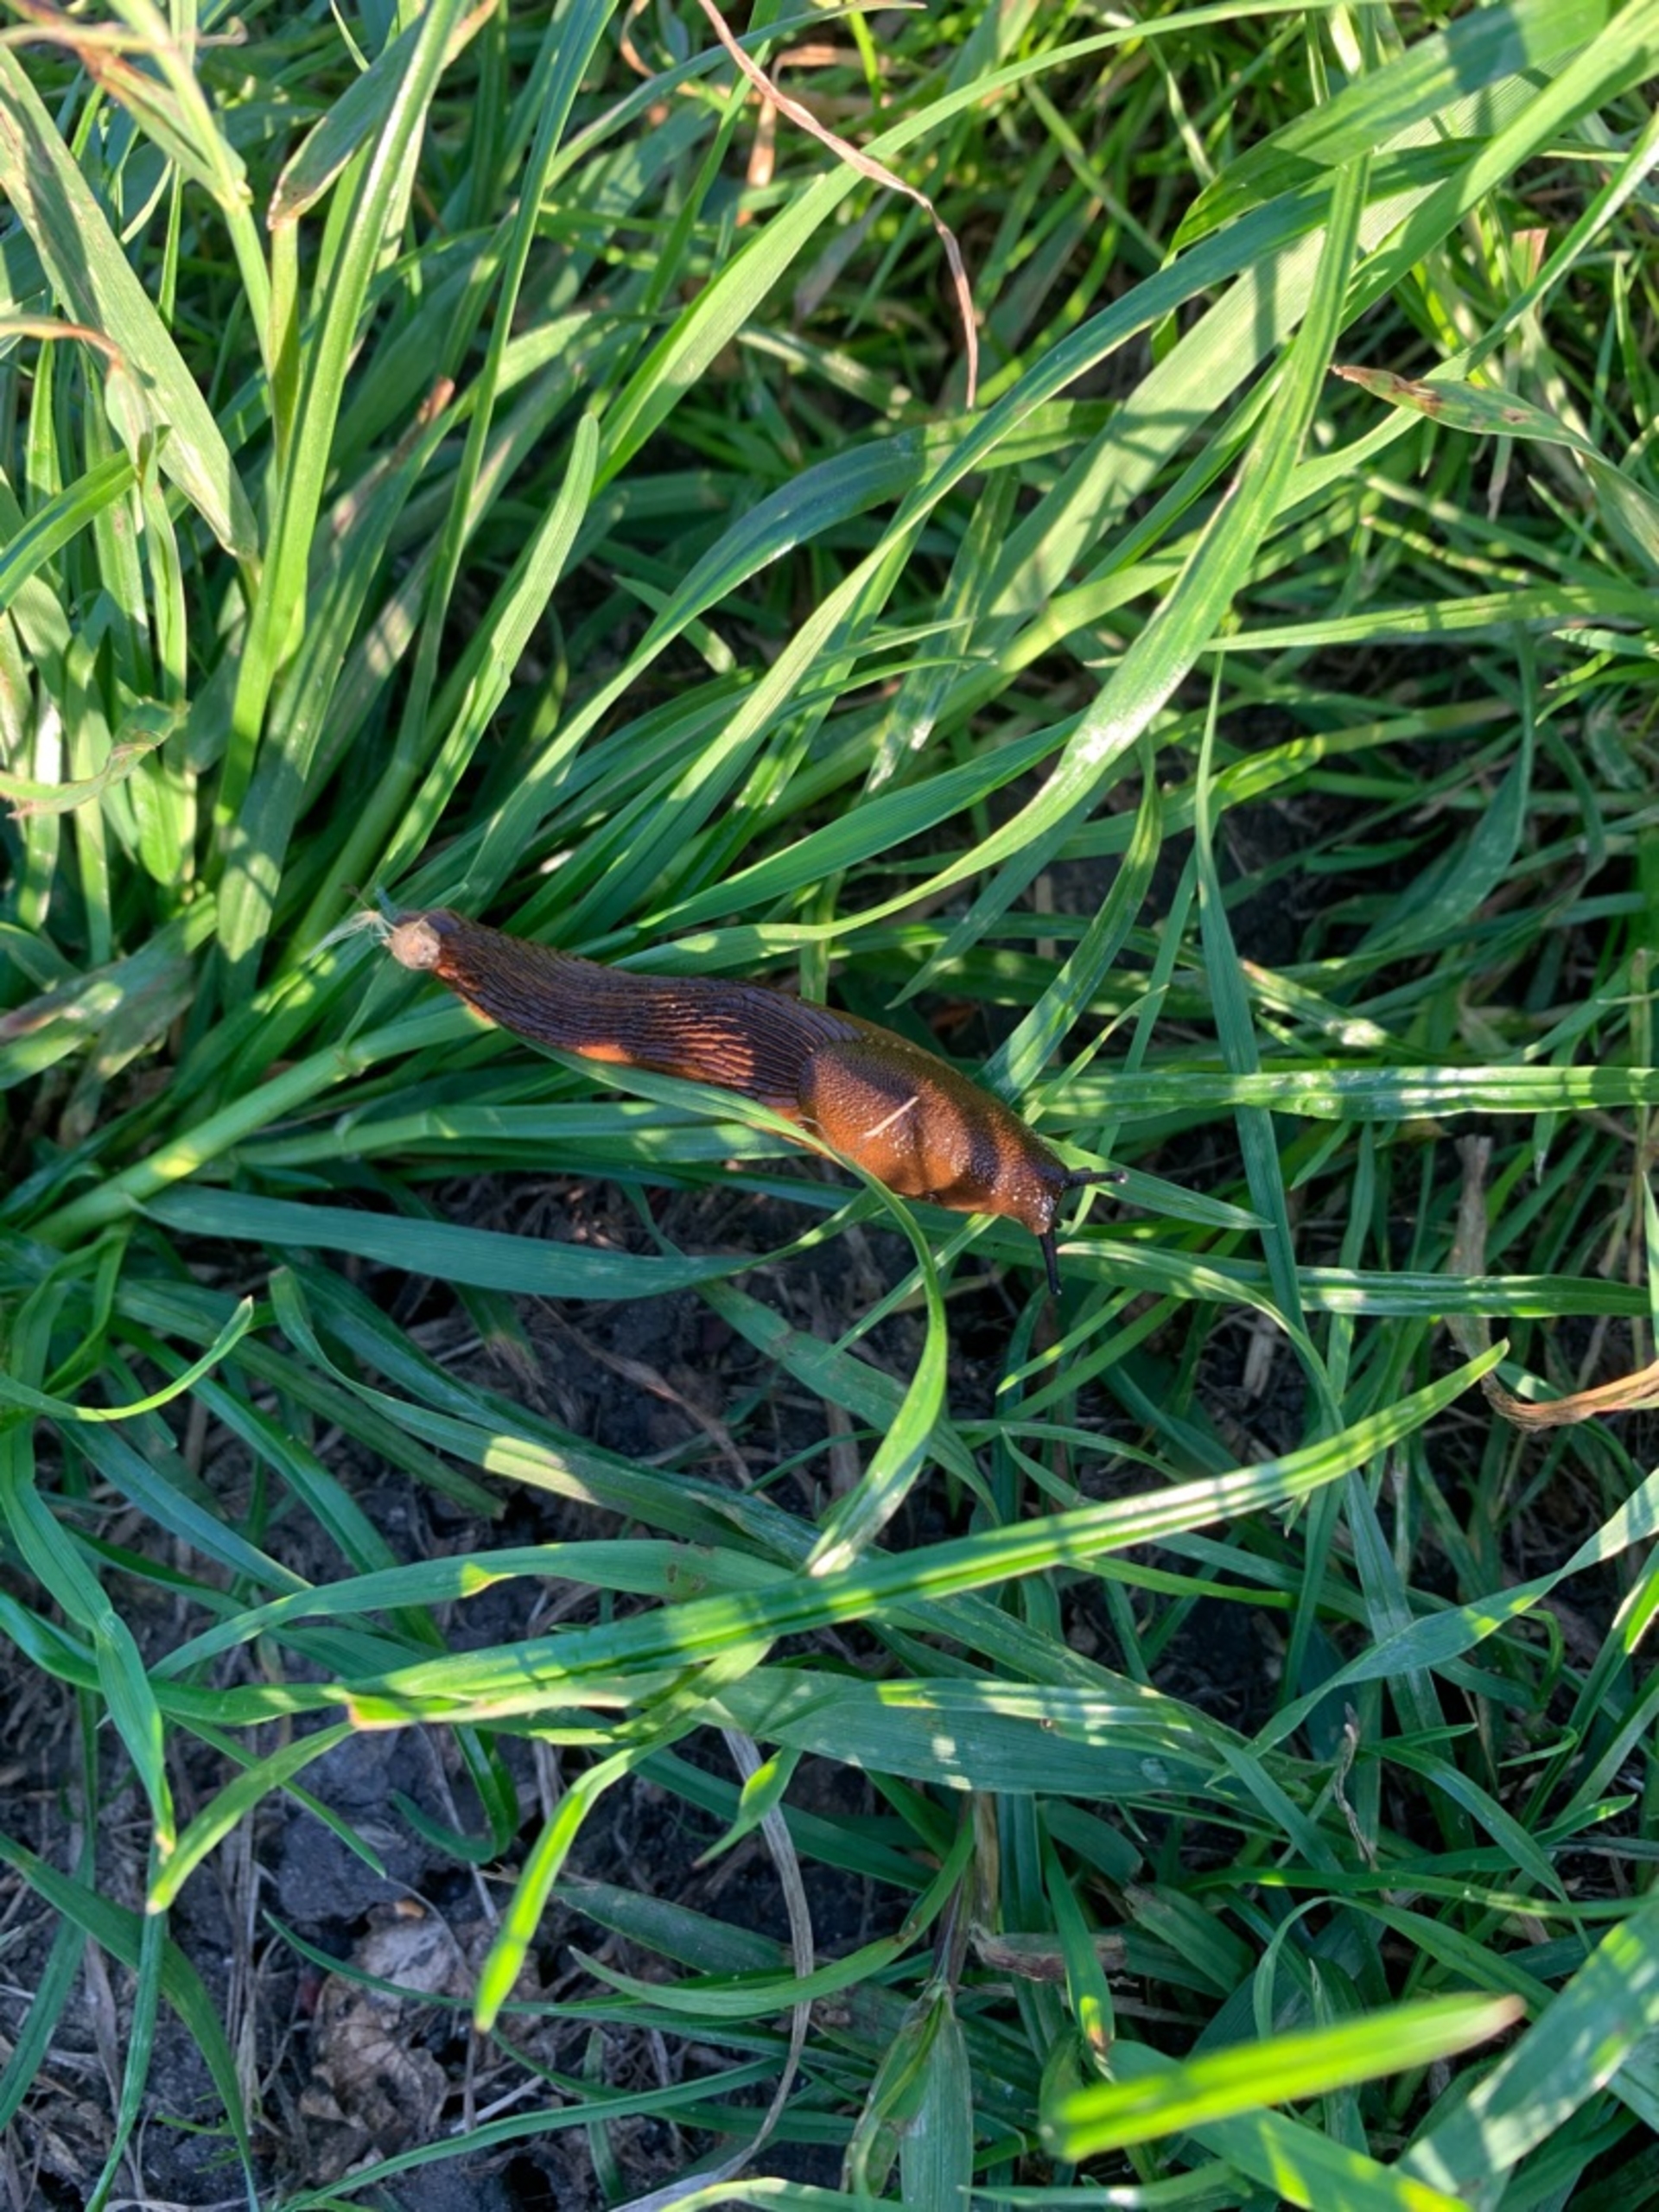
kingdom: Animalia
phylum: Mollusca
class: Gastropoda
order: Stylommatophora
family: Arionidae
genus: Arion
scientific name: Arion vulgaris
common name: Iberisk skovsnegl
